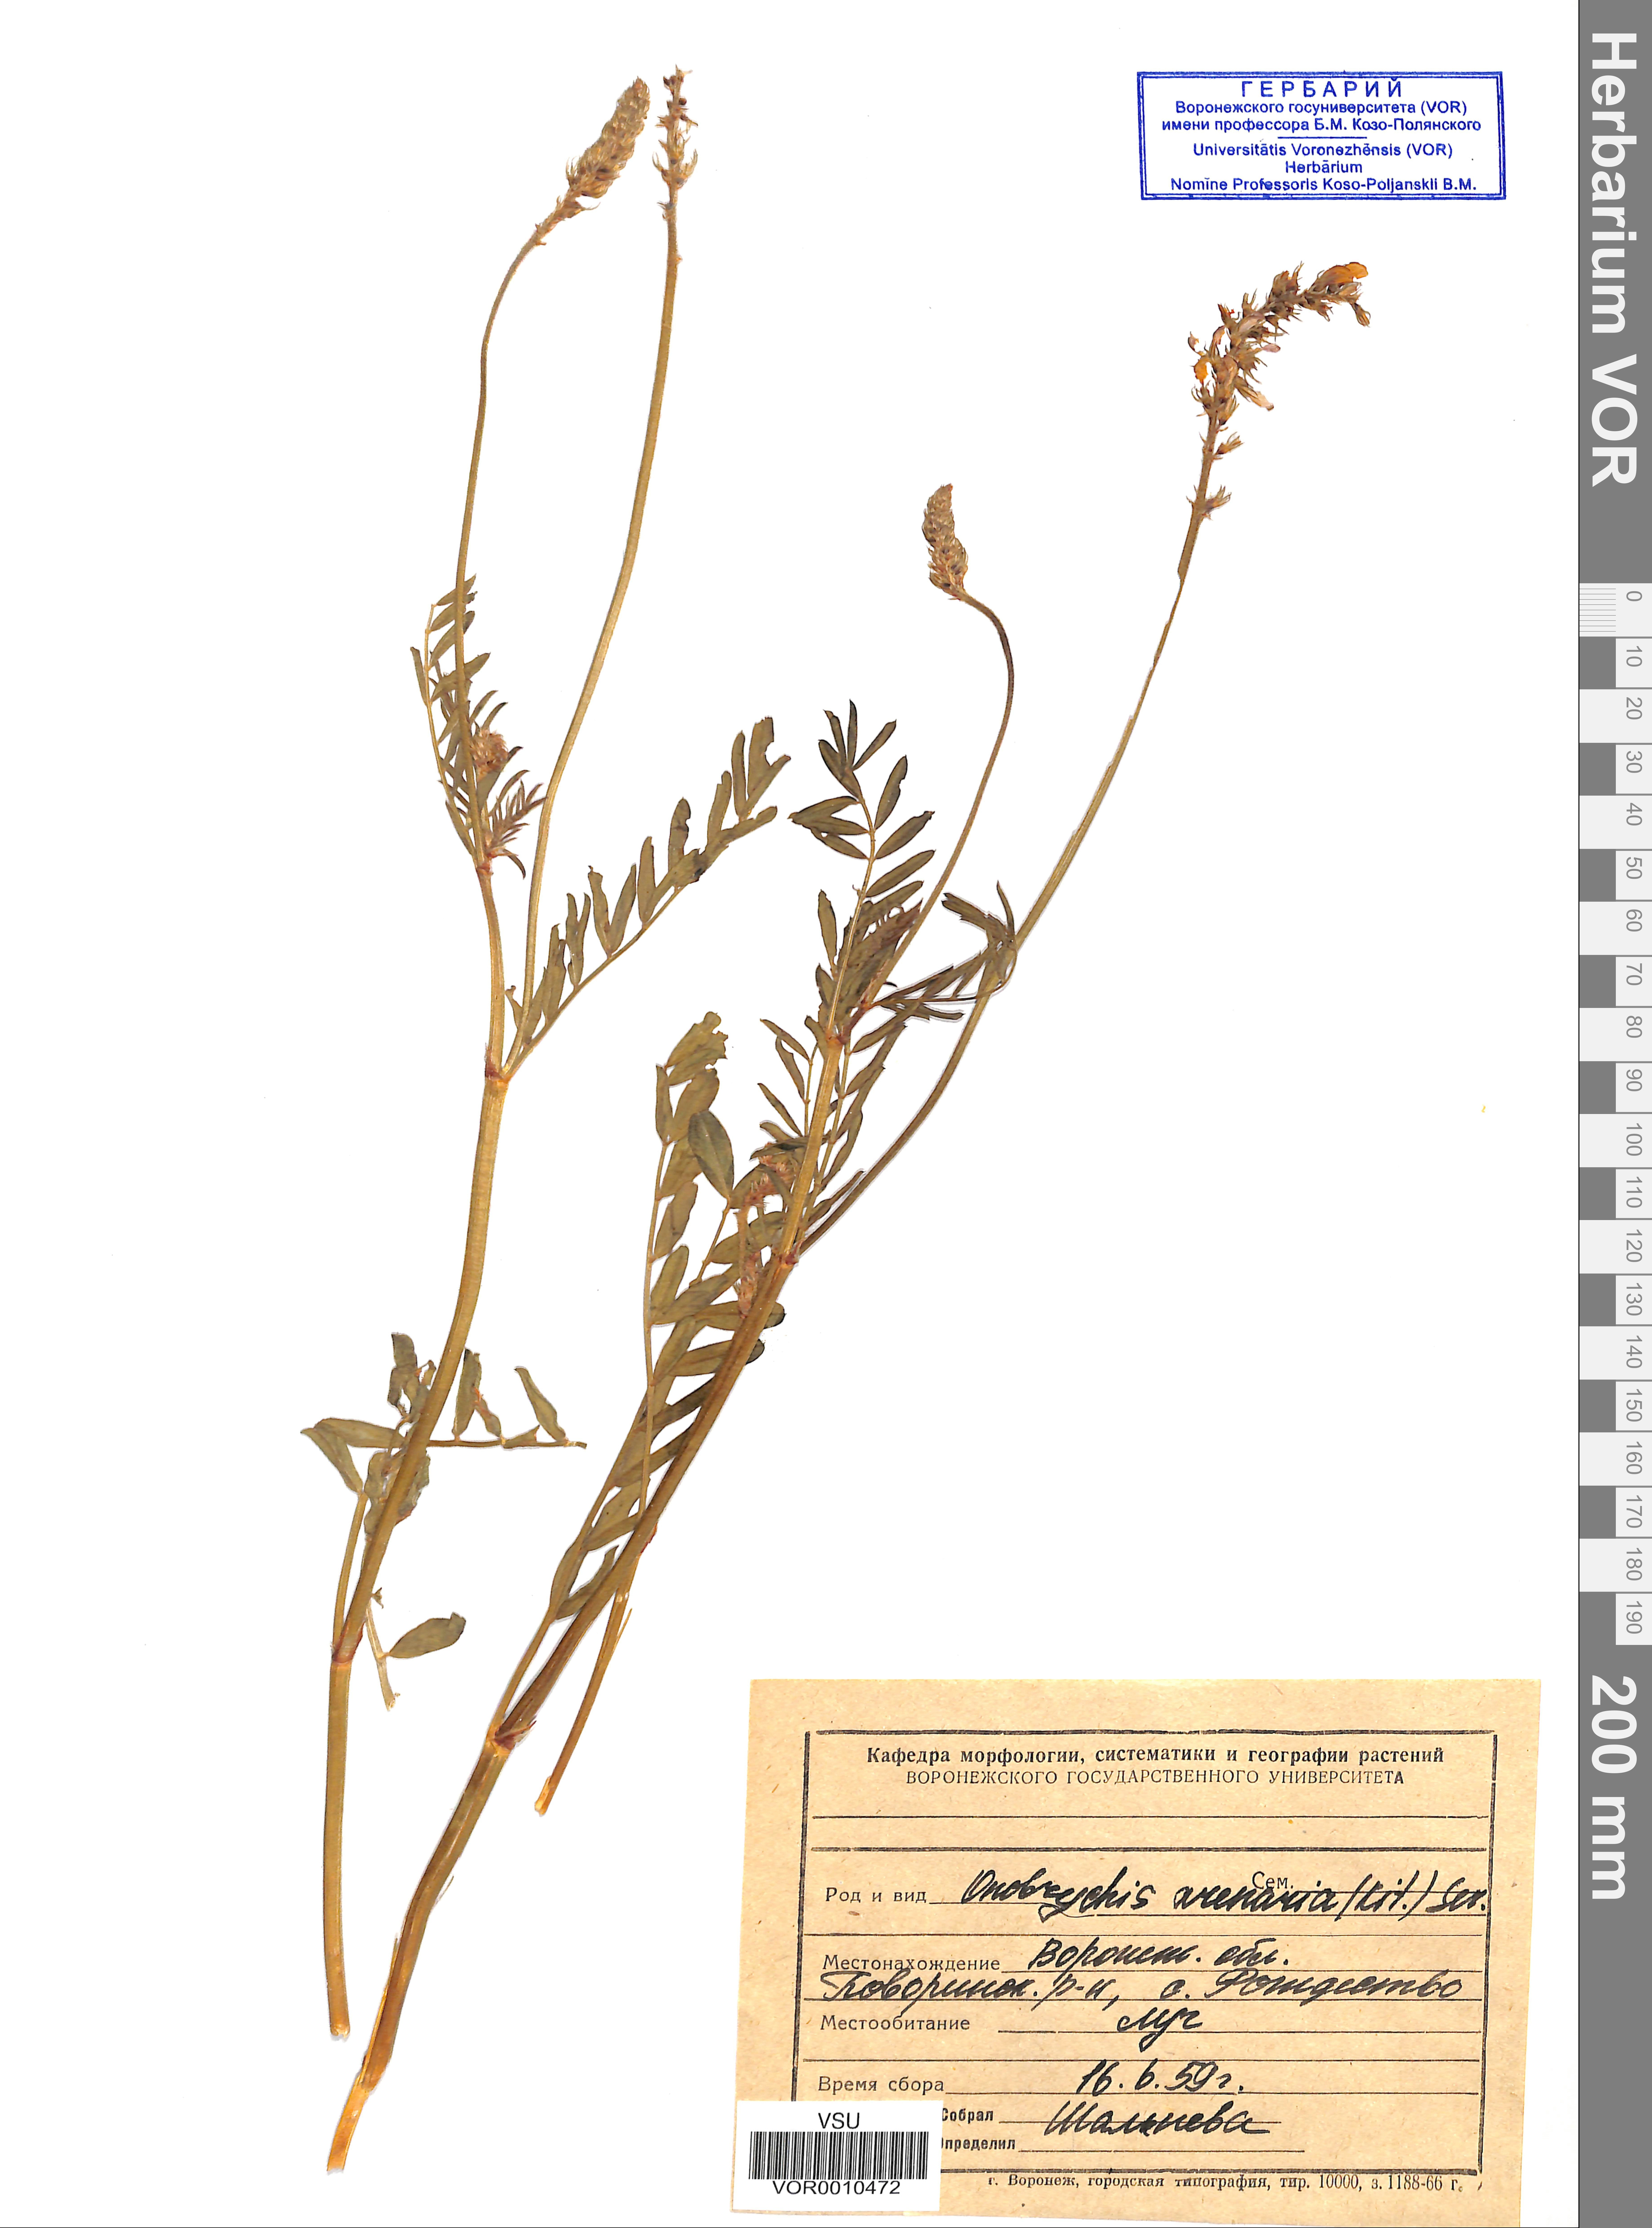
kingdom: Plantae
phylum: Tracheophyta
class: Magnoliopsida
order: Fabales
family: Fabaceae
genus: Onobrychis
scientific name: Onobrychis arenaria
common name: Sand esparcet
